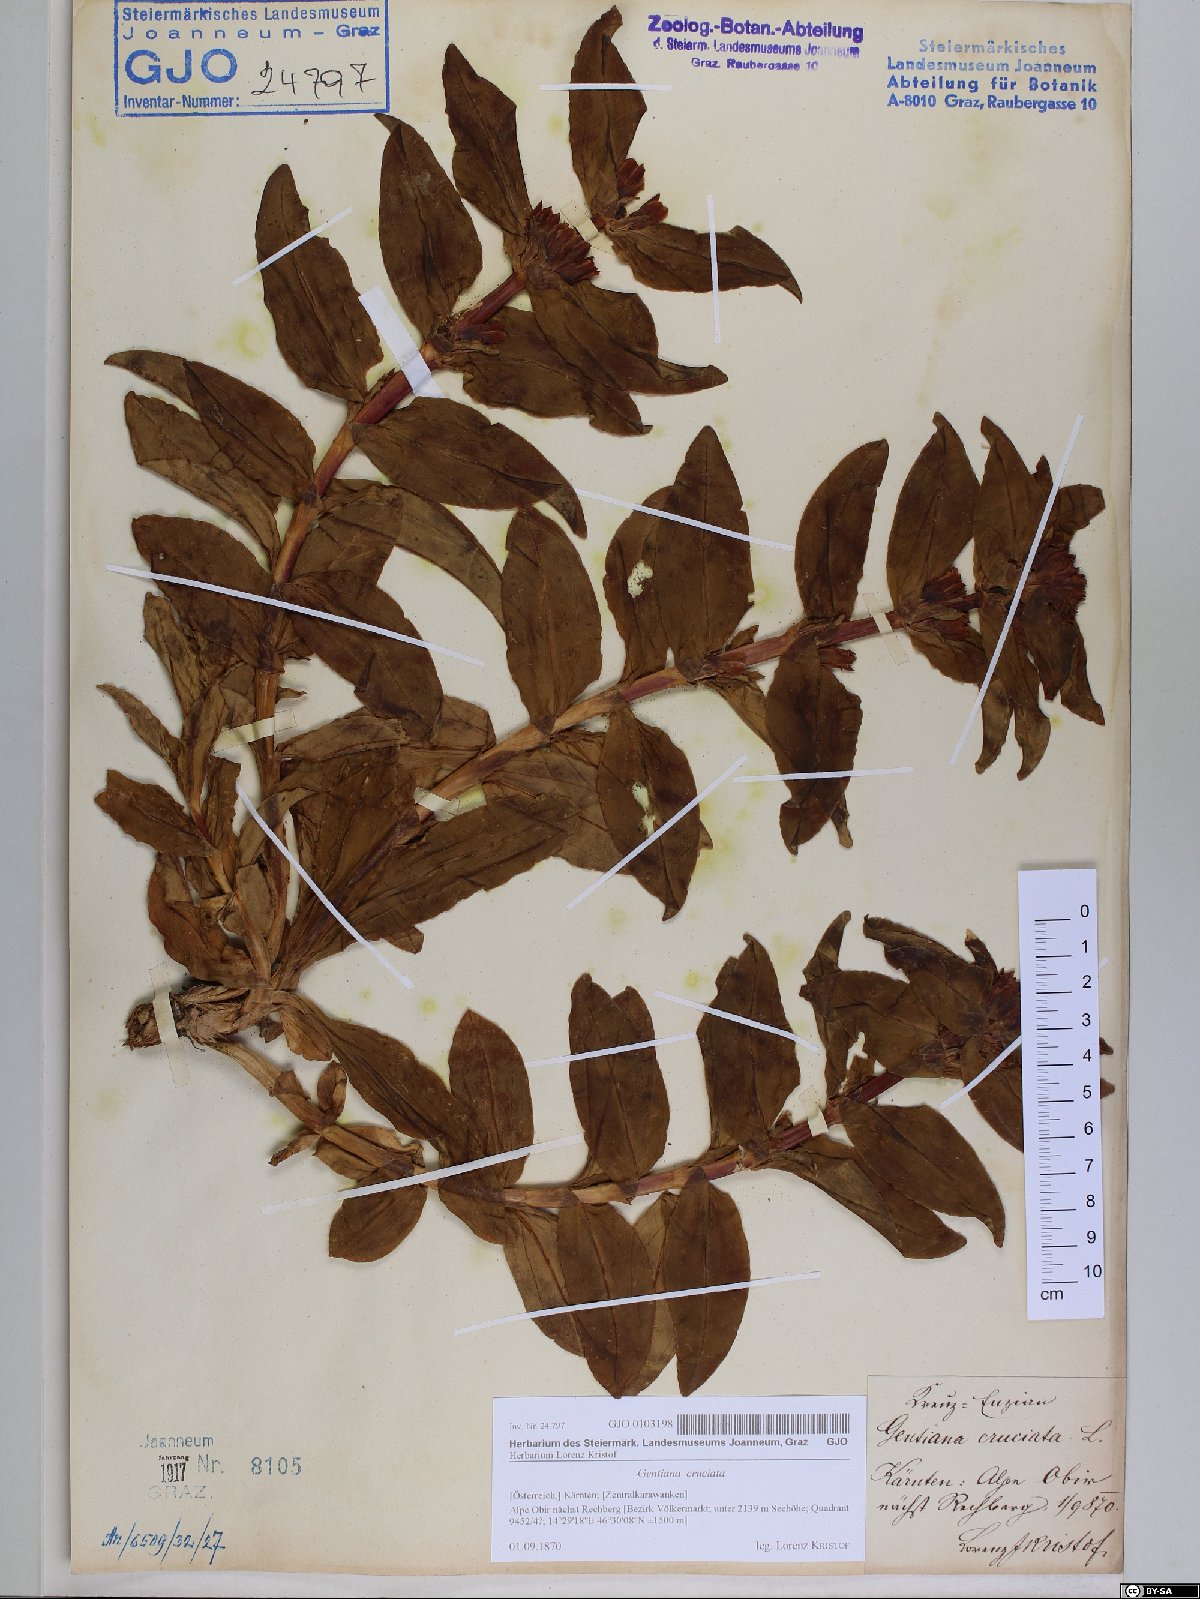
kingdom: Plantae
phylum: Tracheophyta
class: Magnoliopsida
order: Gentianales
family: Gentianaceae
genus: Gentiana
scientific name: Gentiana cruciata
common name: Cross gentian
